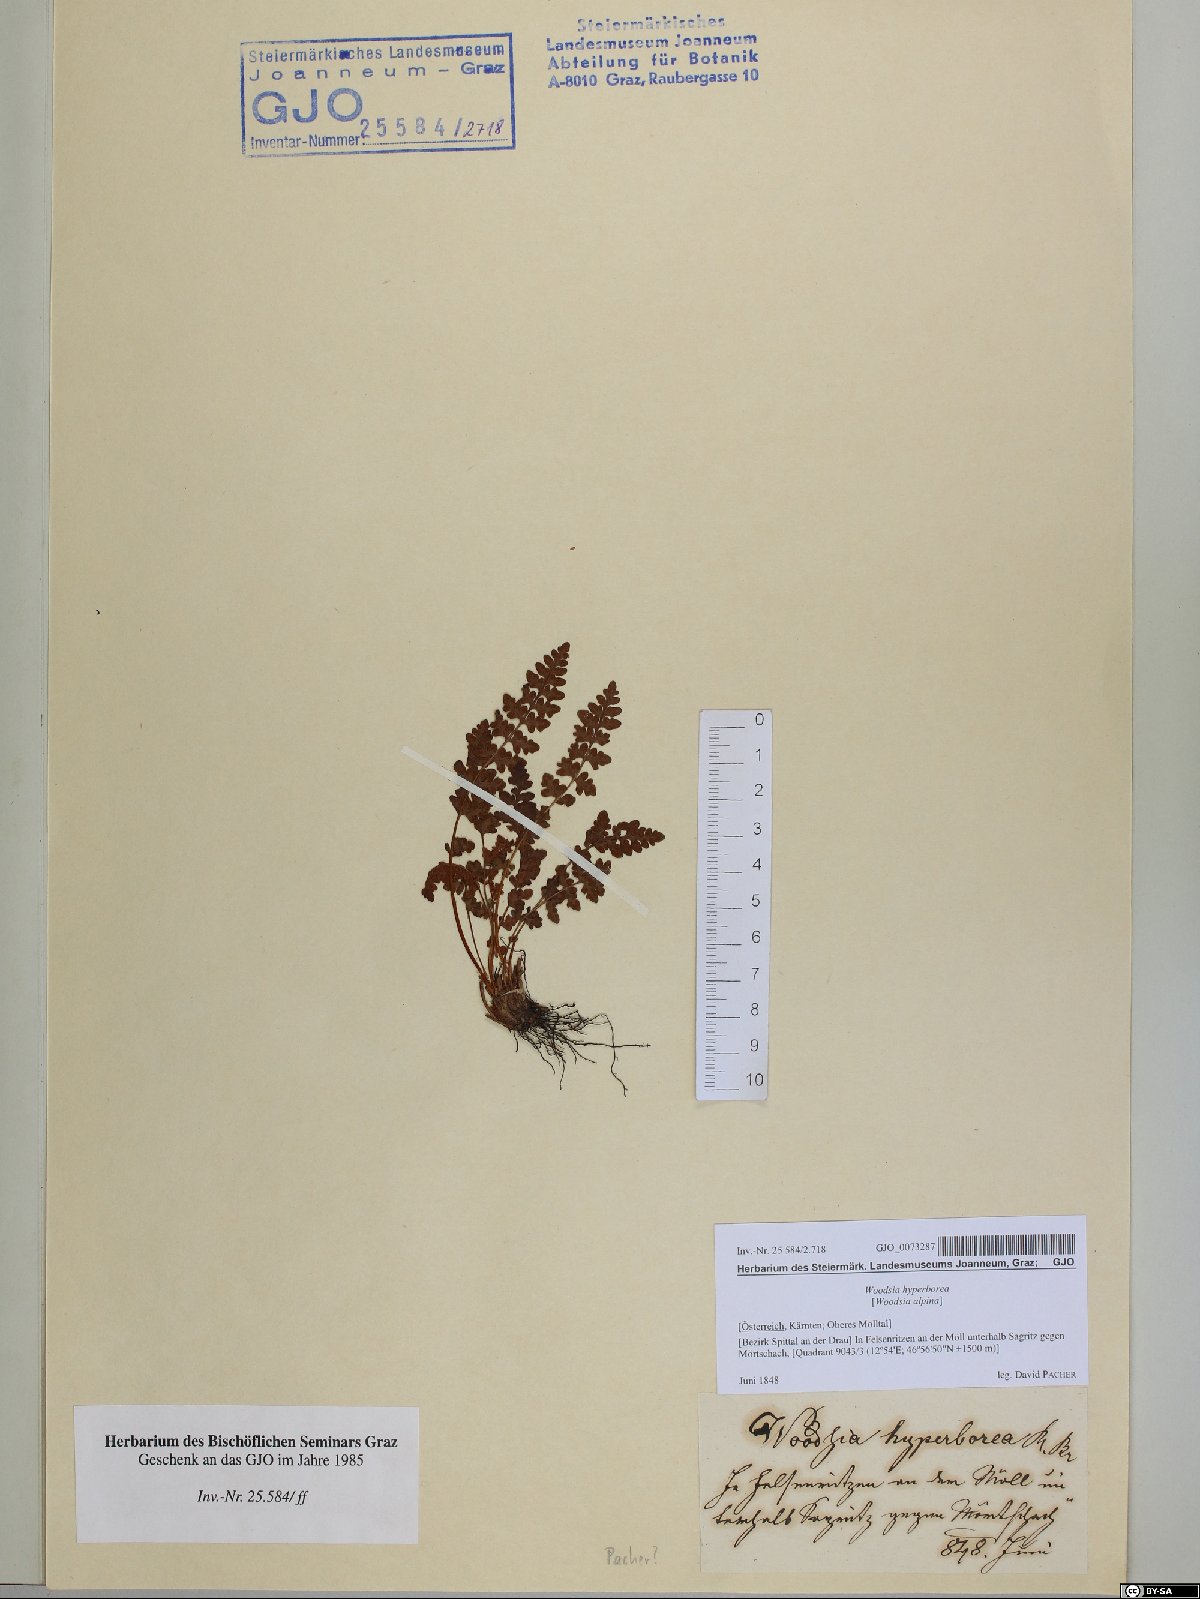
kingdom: Plantae
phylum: Tracheophyta
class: Polypodiopsida
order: Polypodiales
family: Woodsiaceae
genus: Woodsia
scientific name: Woodsia alpina
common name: Alpine woodsia
